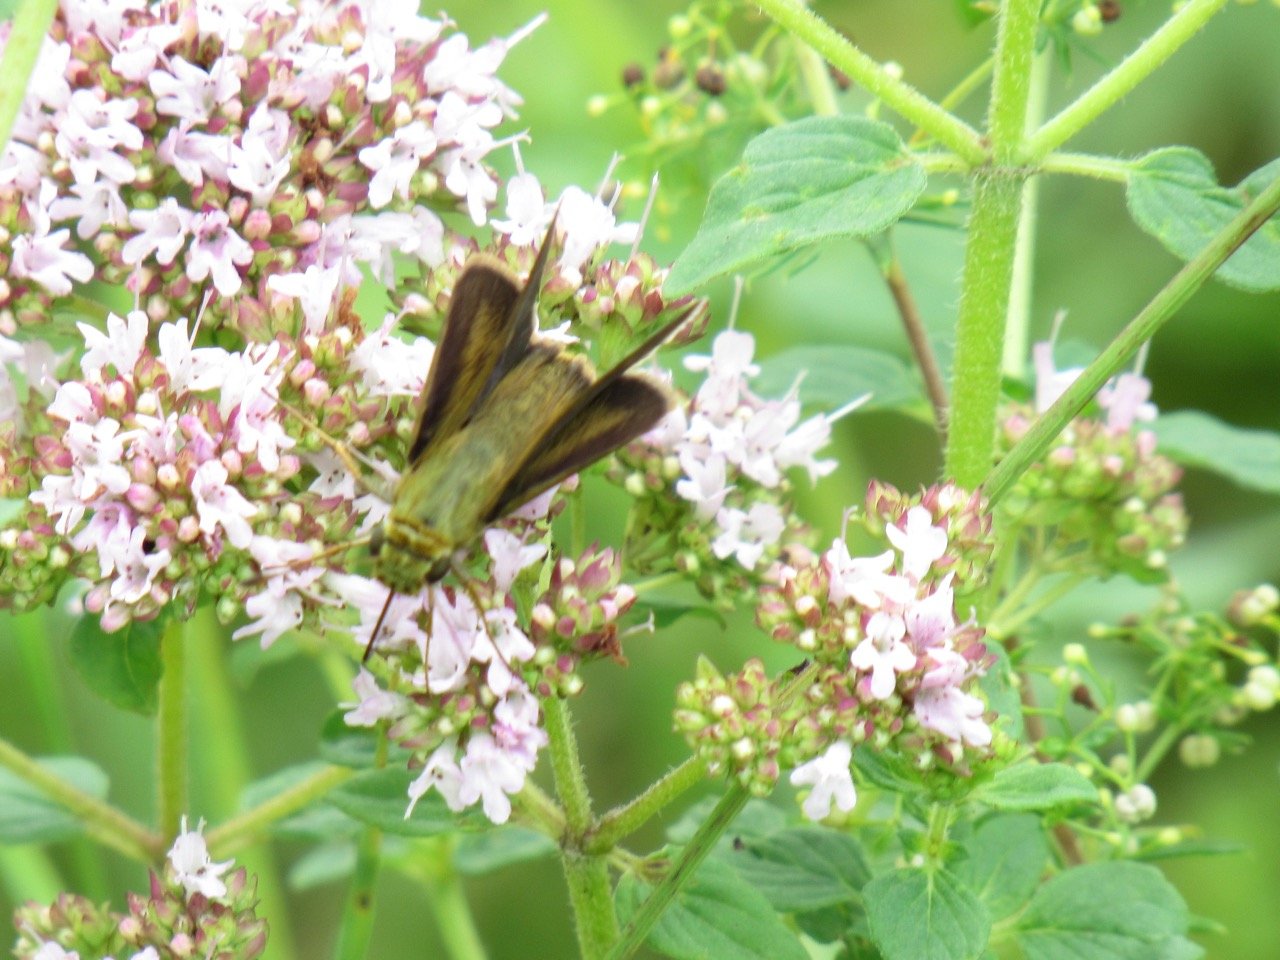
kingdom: Animalia
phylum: Arthropoda
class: Insecta
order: Lepidoptera
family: Hesperiidae
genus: Euphyes
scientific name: Euphyes vestris
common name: Dun Skipper
